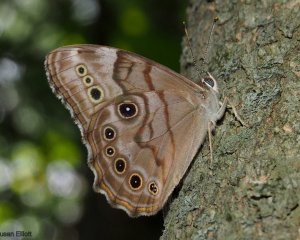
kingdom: Animalia
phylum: Arthropoda
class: Insecta
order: Lepidoptera
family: Nymphalidae
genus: Lethe
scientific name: Lethe anthedon
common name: Northern Pearly-Eye
